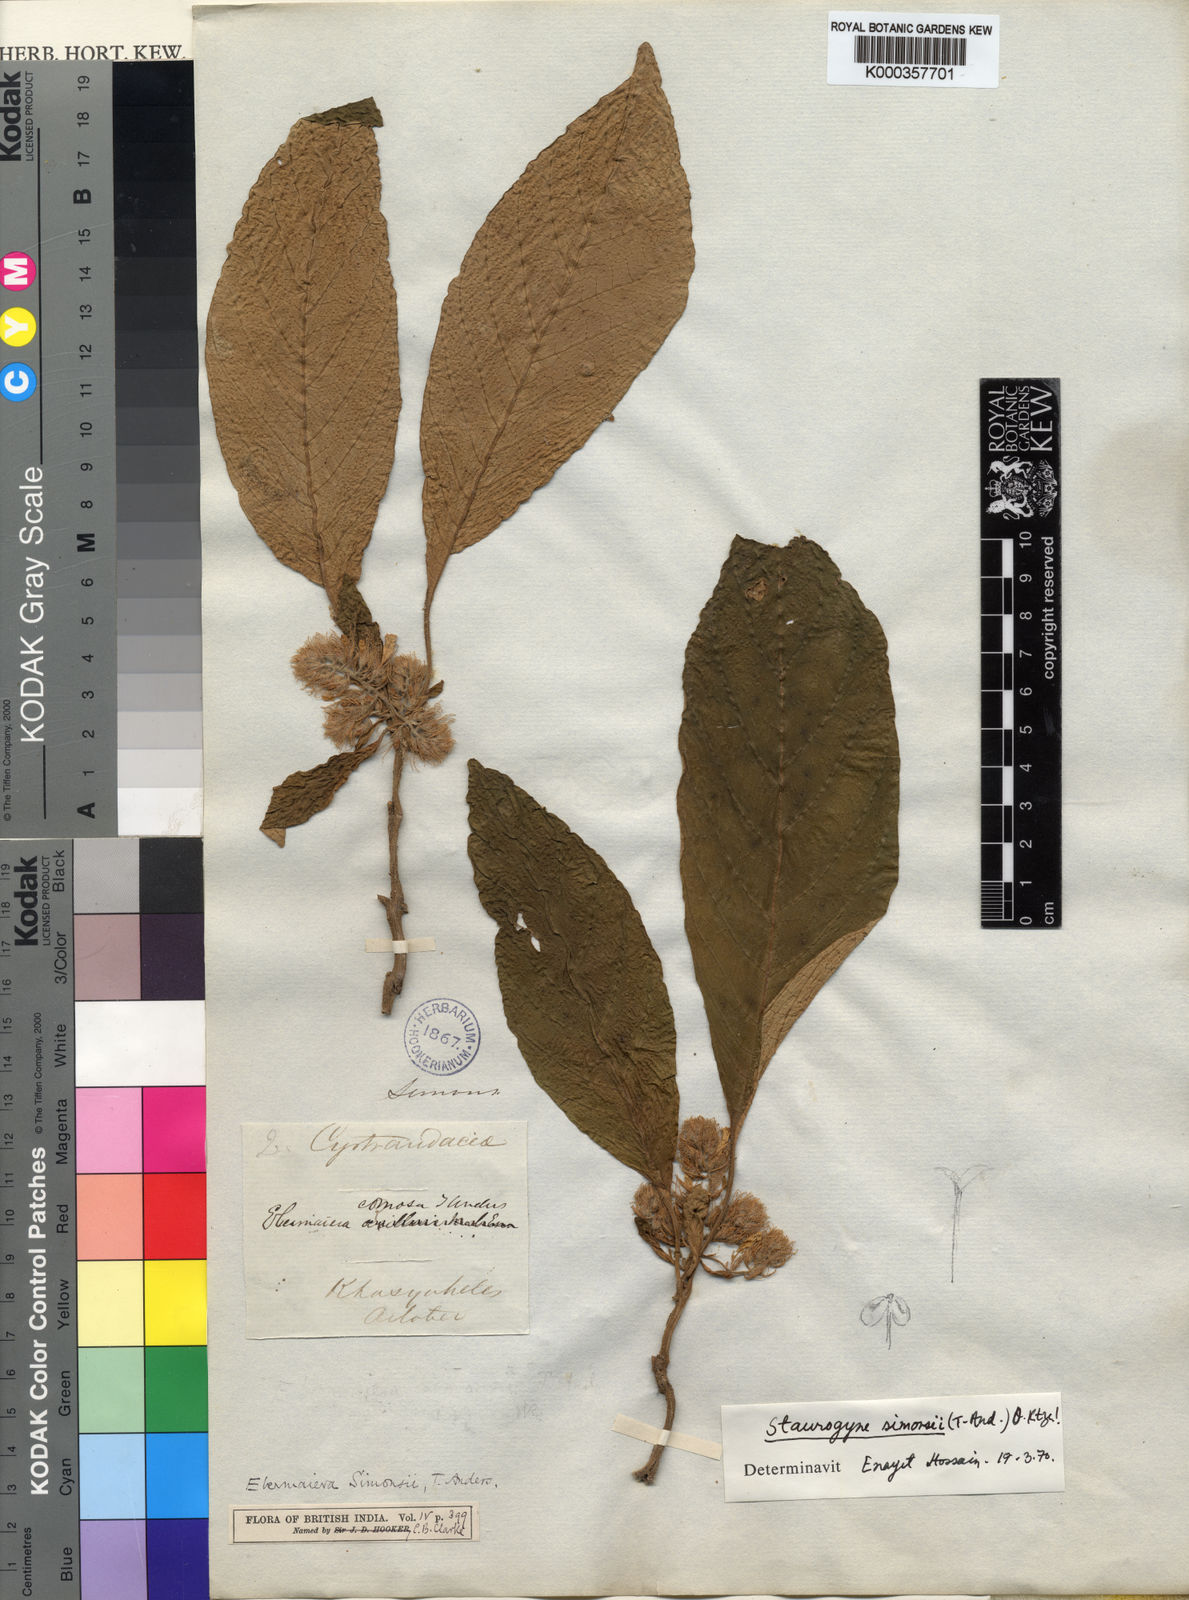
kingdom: Plantae
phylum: Tracheophyta
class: Magnoliopsida
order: Lamiales
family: Acanthaceae
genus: Staurogyne
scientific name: Staurogyne simonsii
